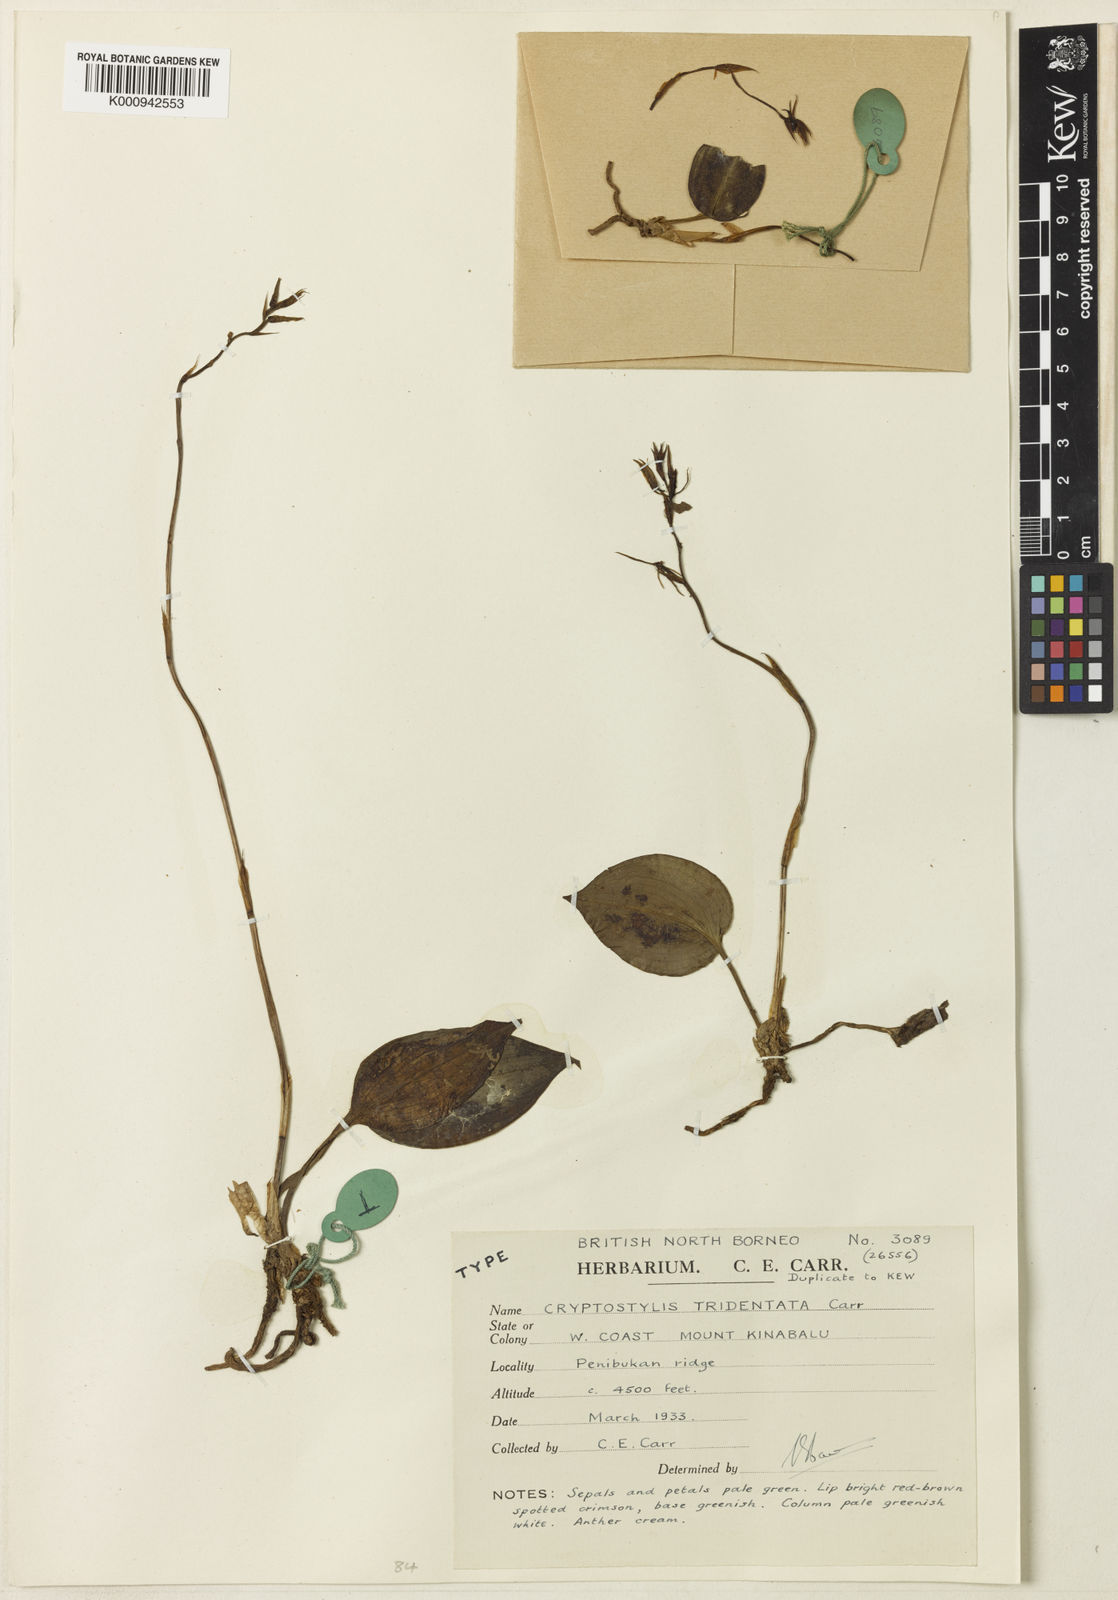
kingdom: Plantae
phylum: Tracheophyta
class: Liliopsida
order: Asparagales
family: Orchidaceae
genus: Cryptostylis
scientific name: Cryptostylis clemensii
